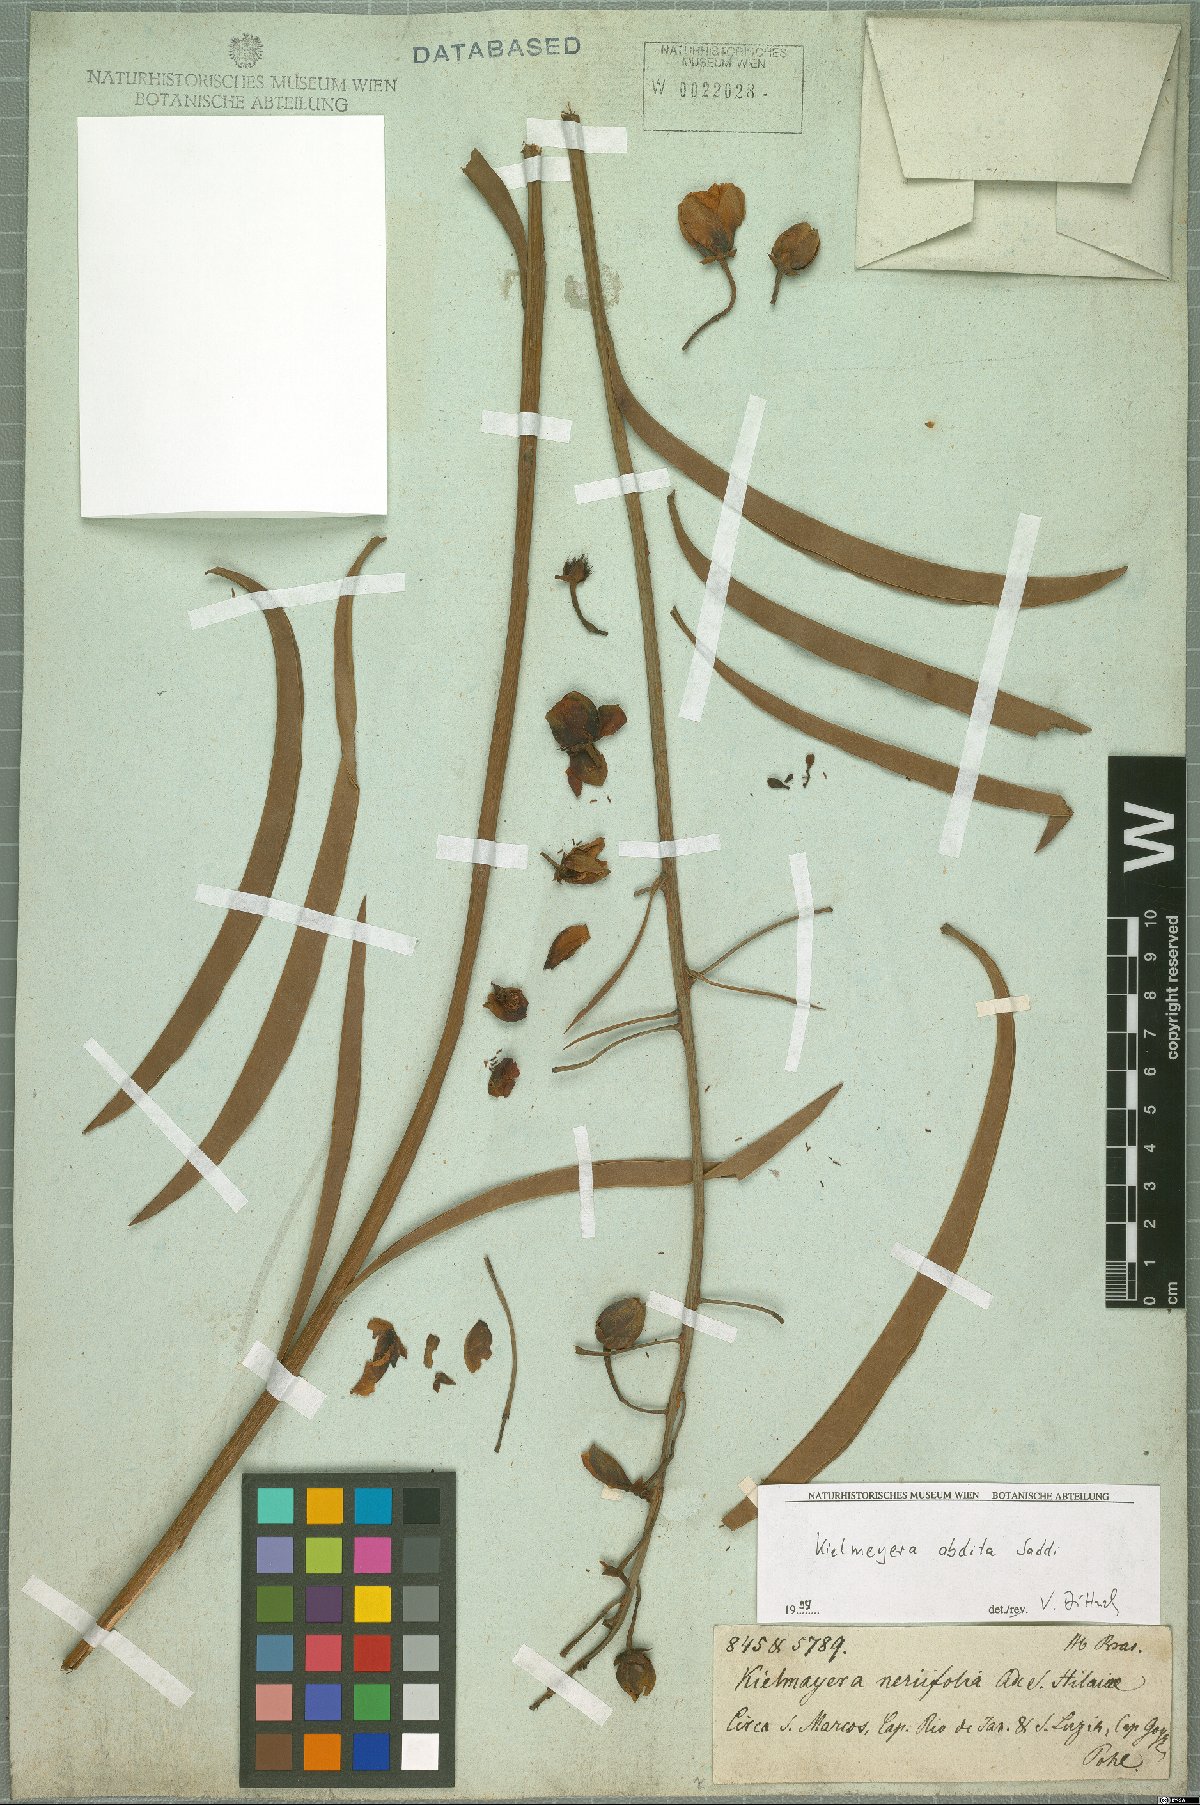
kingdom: Plantae
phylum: Tracheophyta
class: Magnoliopsida
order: Malpighiales
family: Calophyllaceae
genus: Kielmeyera
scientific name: Kielmeyera abdita
